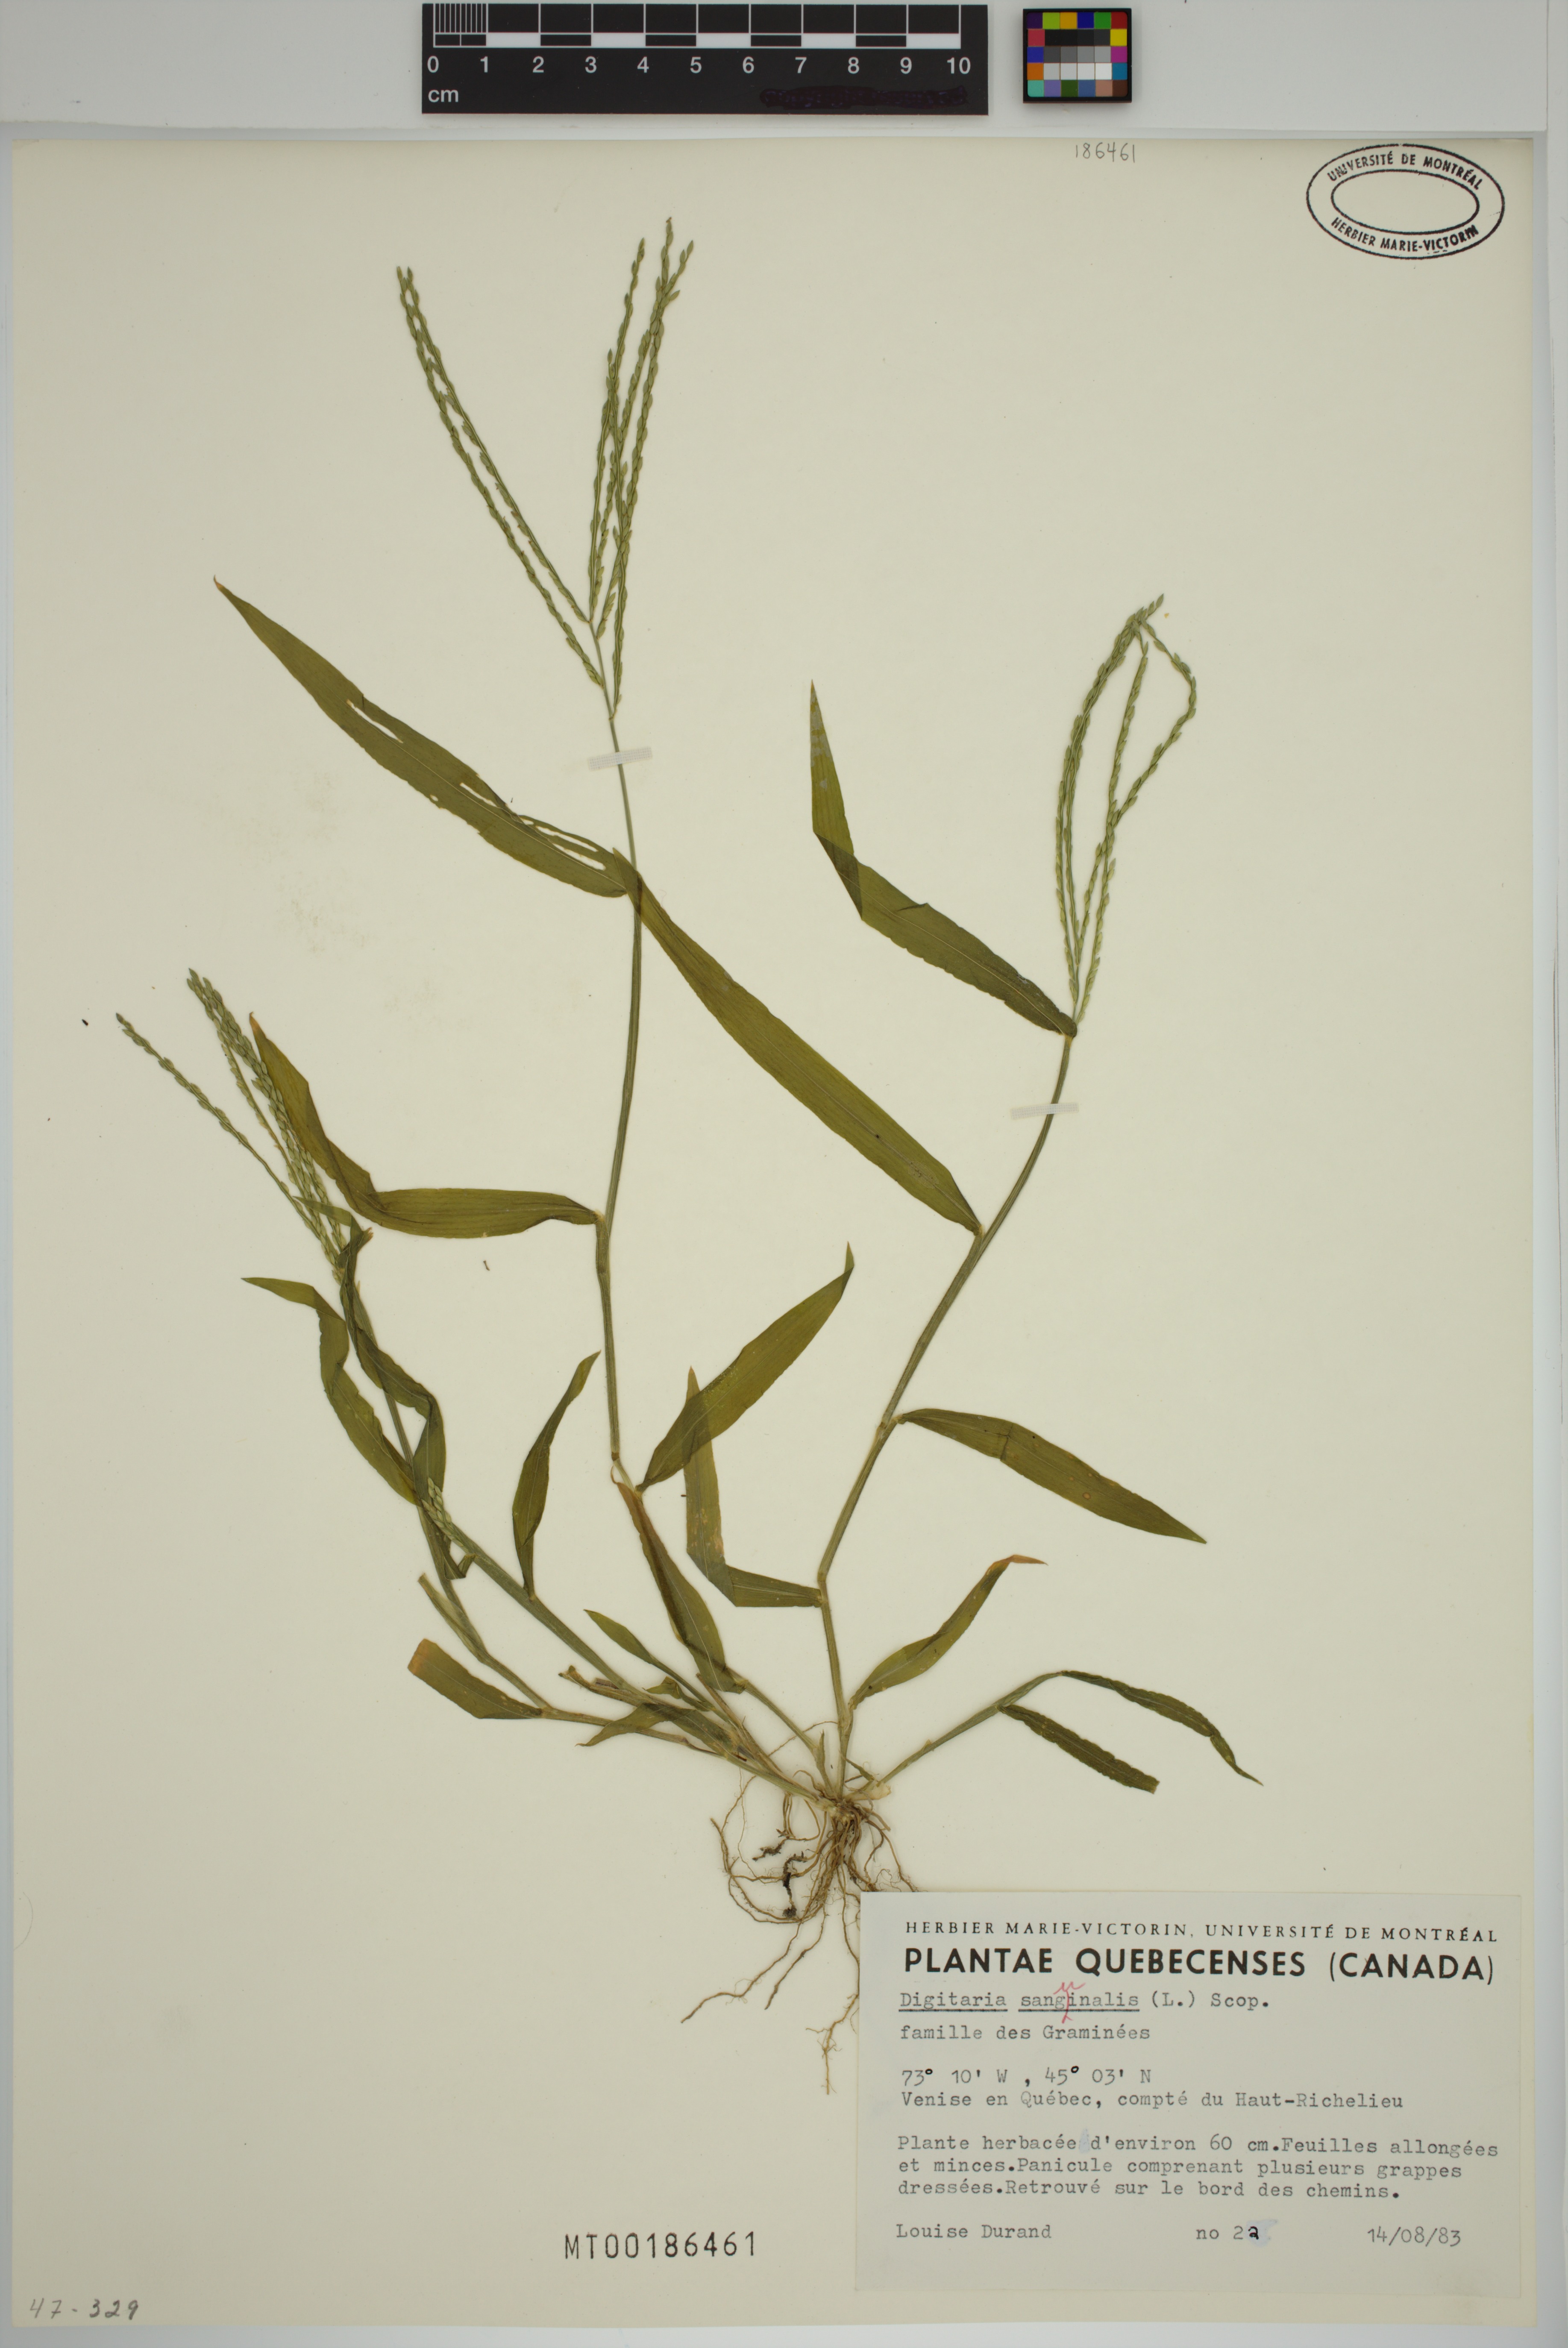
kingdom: Plantae
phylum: Tracheophyta
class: Liliopsida
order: Poales
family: Poaceae
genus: Digitaria
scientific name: Digitaria sanguinalis
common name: Hairy crabgrass
